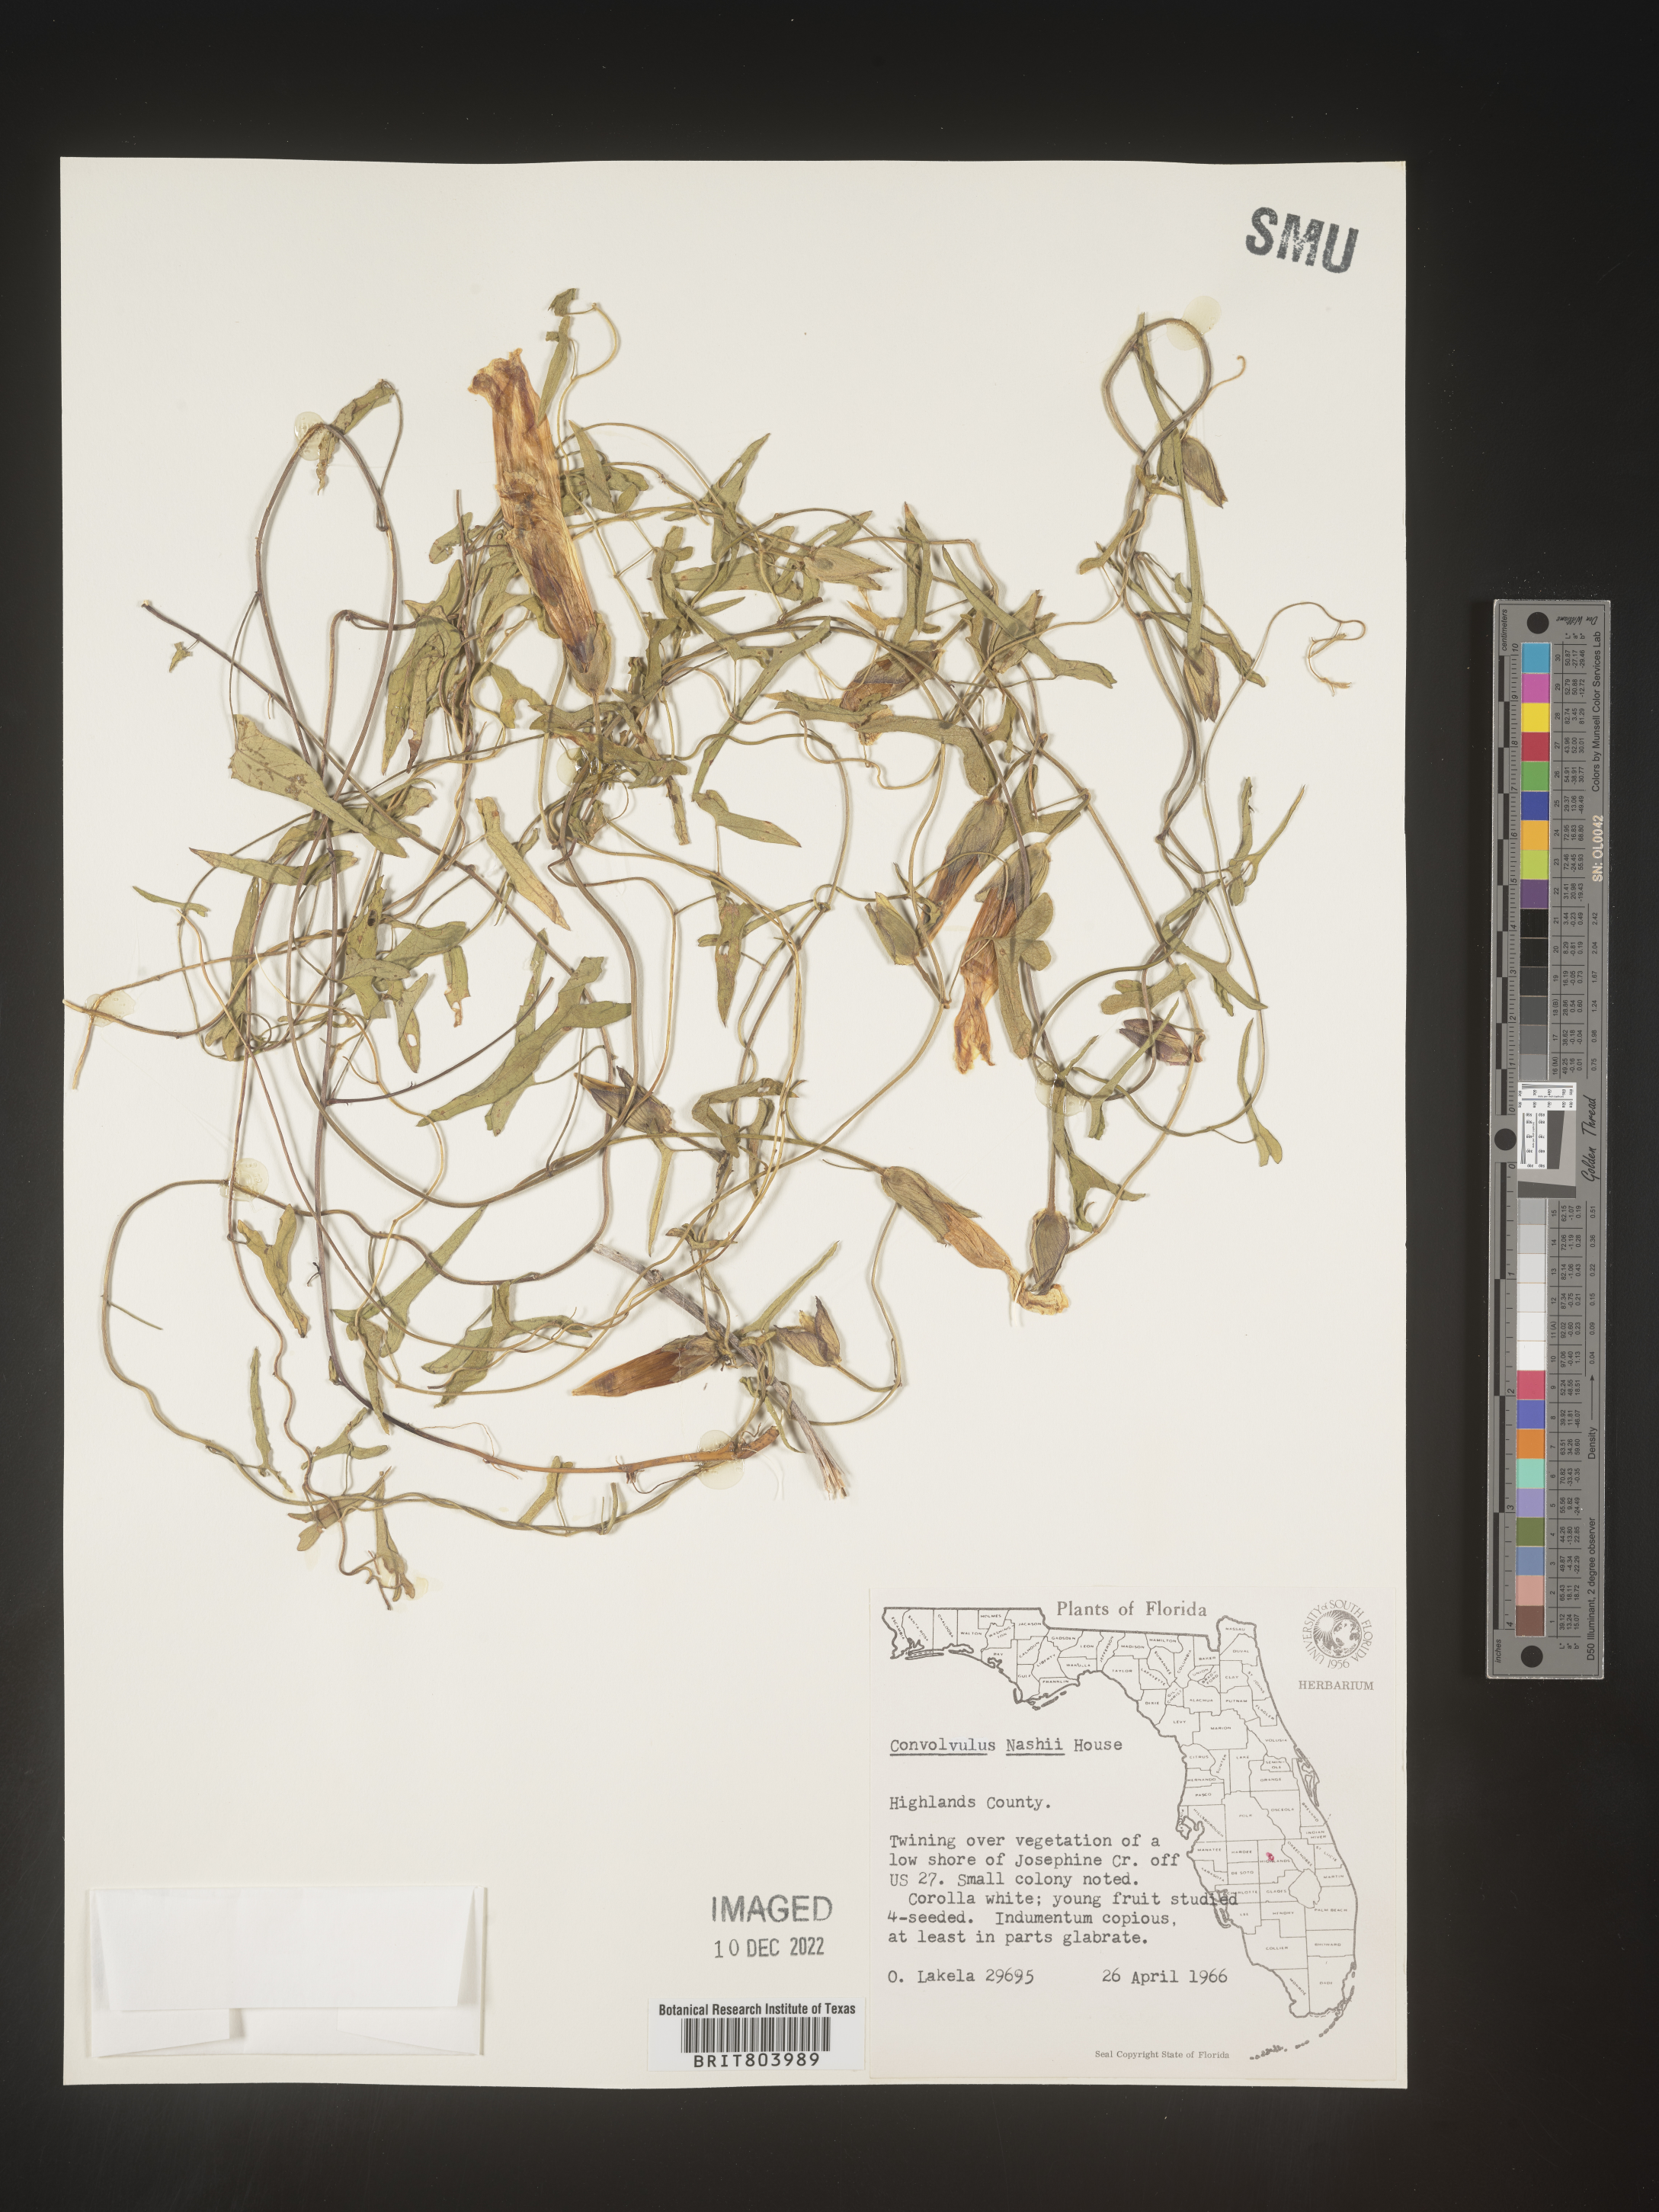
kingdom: Plantae
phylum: Tracheophyta
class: Magnoliopsida
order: Solanales
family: Convolvulaceae
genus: Calystegia
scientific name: Calystegia
